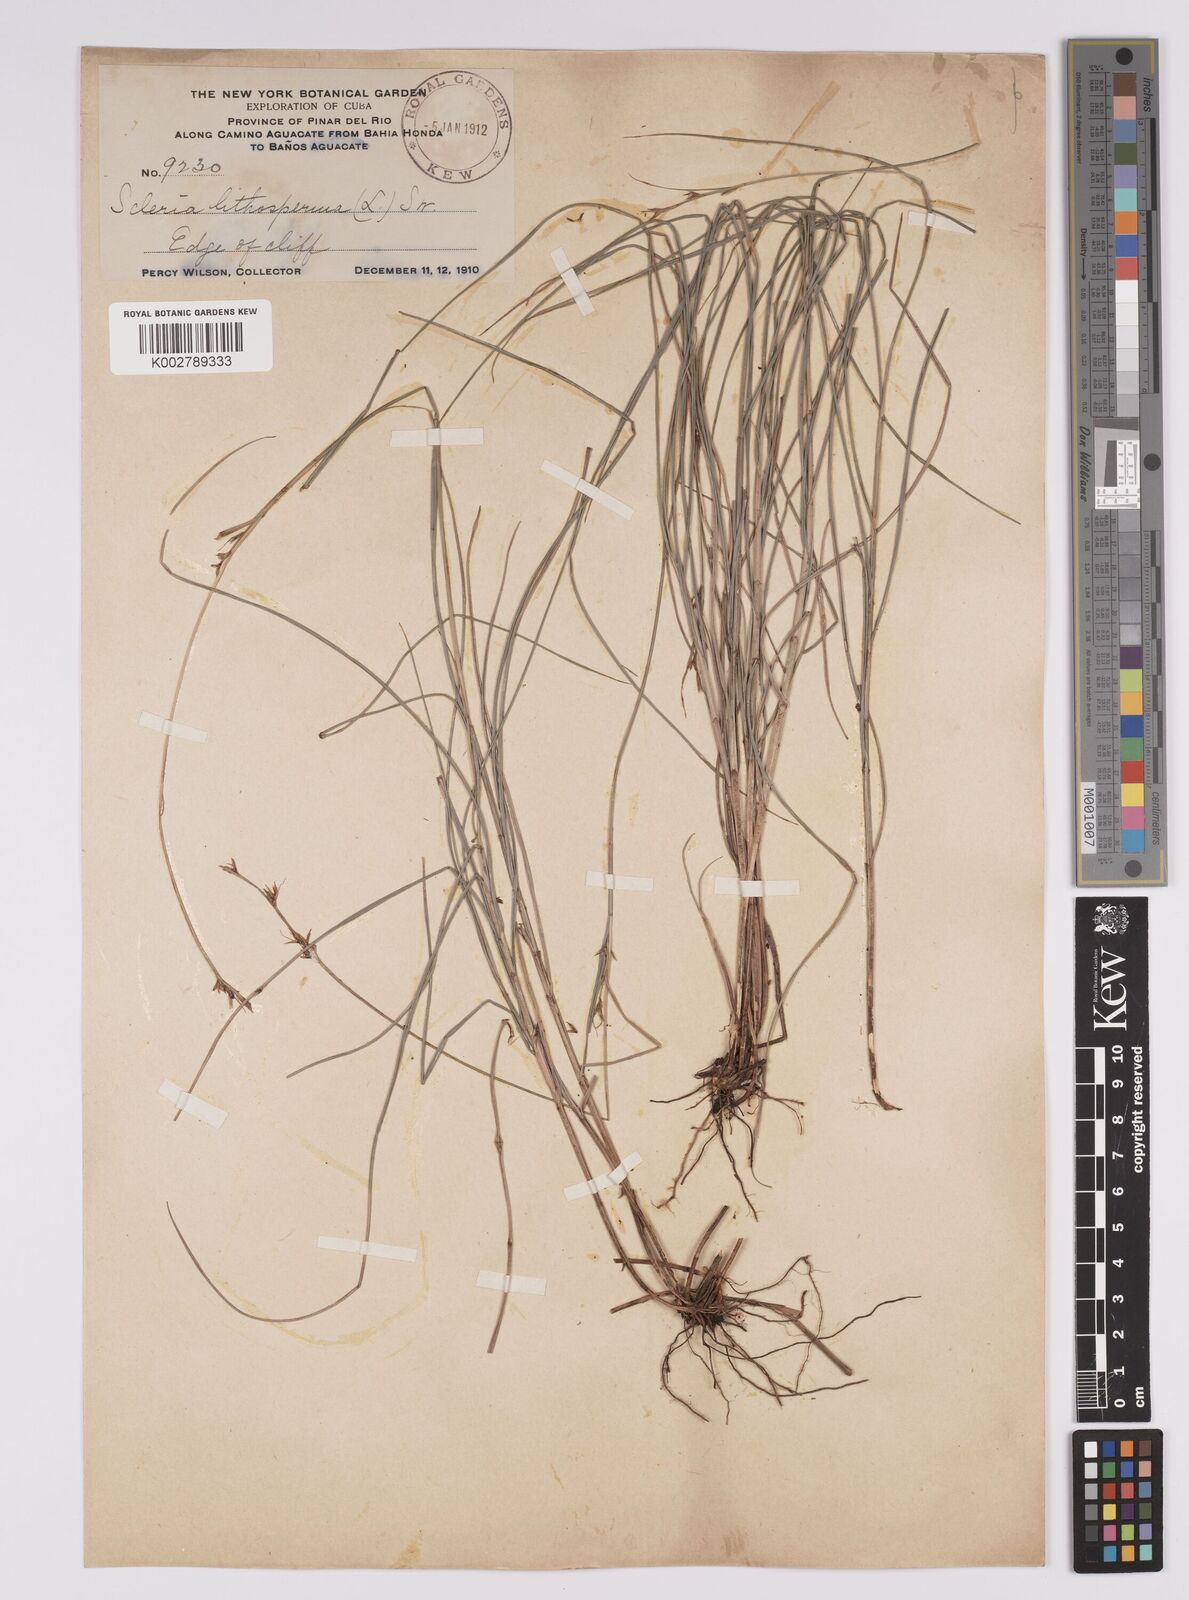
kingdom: Plantae
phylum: Tracheophyta
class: Liliopsida
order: Poales
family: Cyperaceae
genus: Scleria
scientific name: Scleria lithosperma
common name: Florida keys nut-rush
